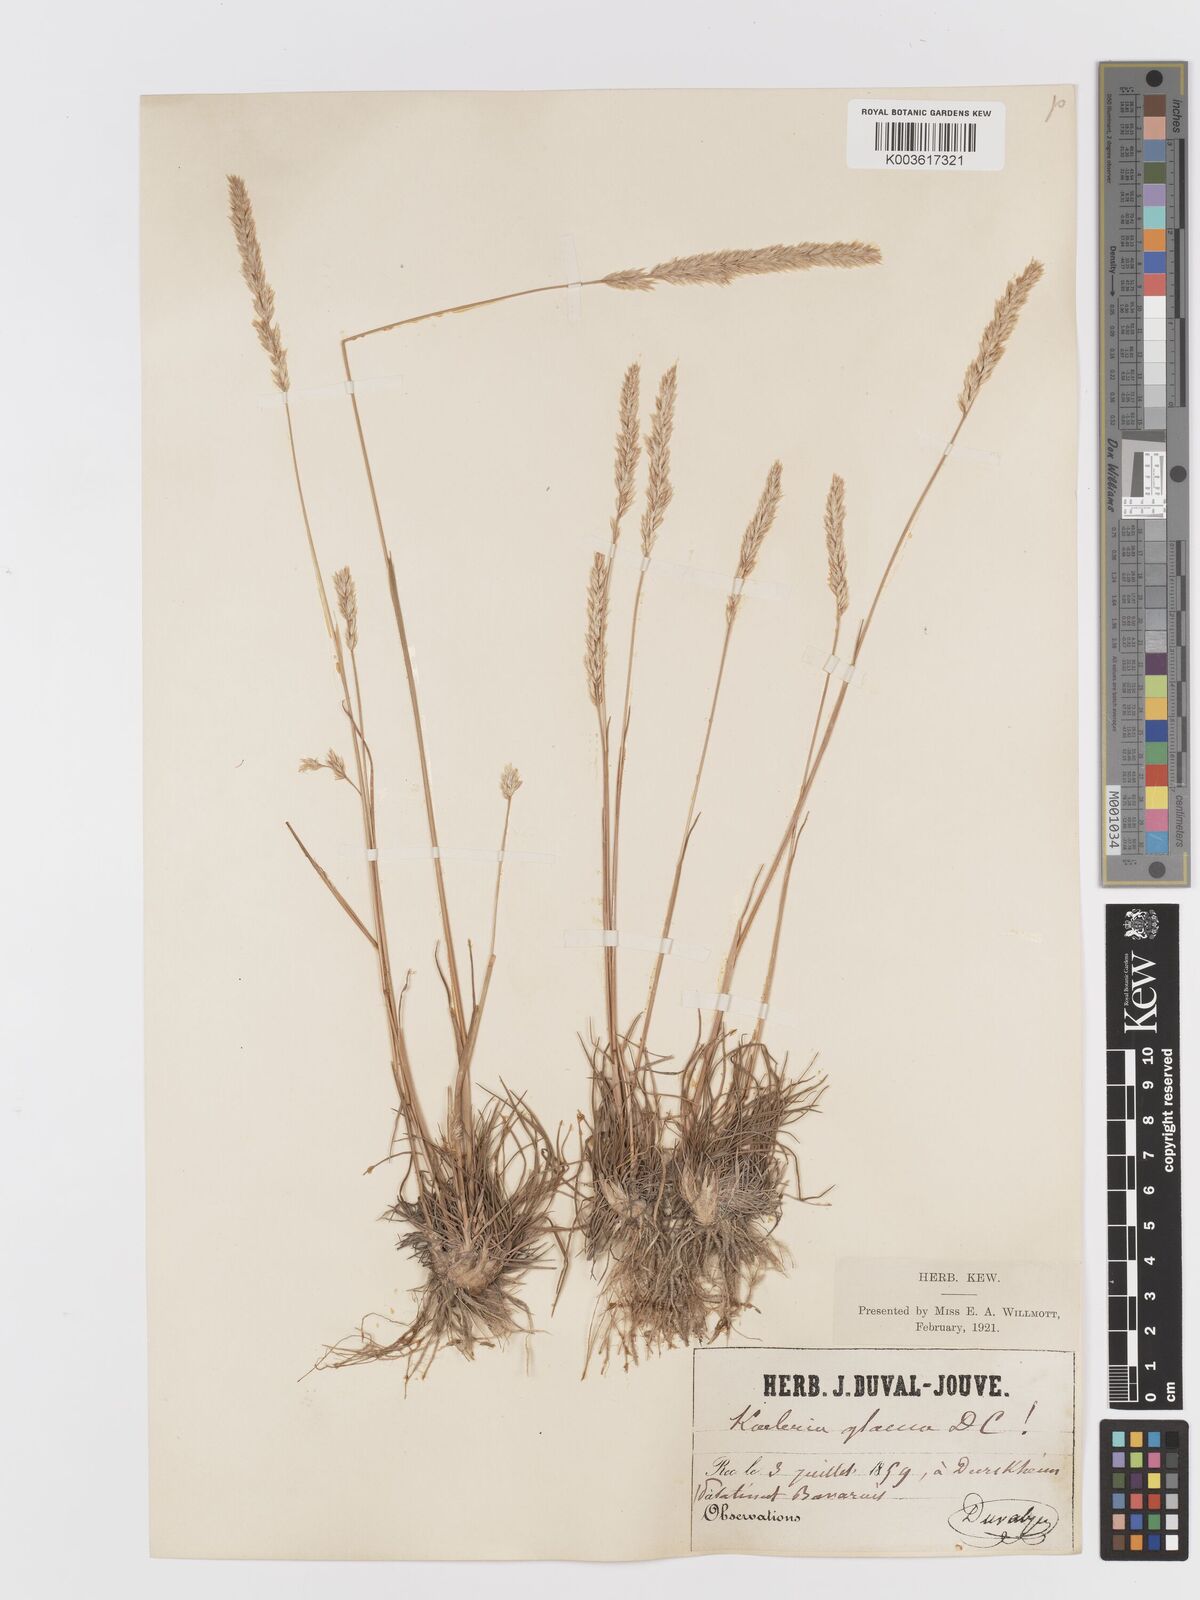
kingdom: Plantae
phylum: Tracheophyta
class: Liliopsida
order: Poales
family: Poaceae
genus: Koeleria
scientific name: Koeleria glauca
